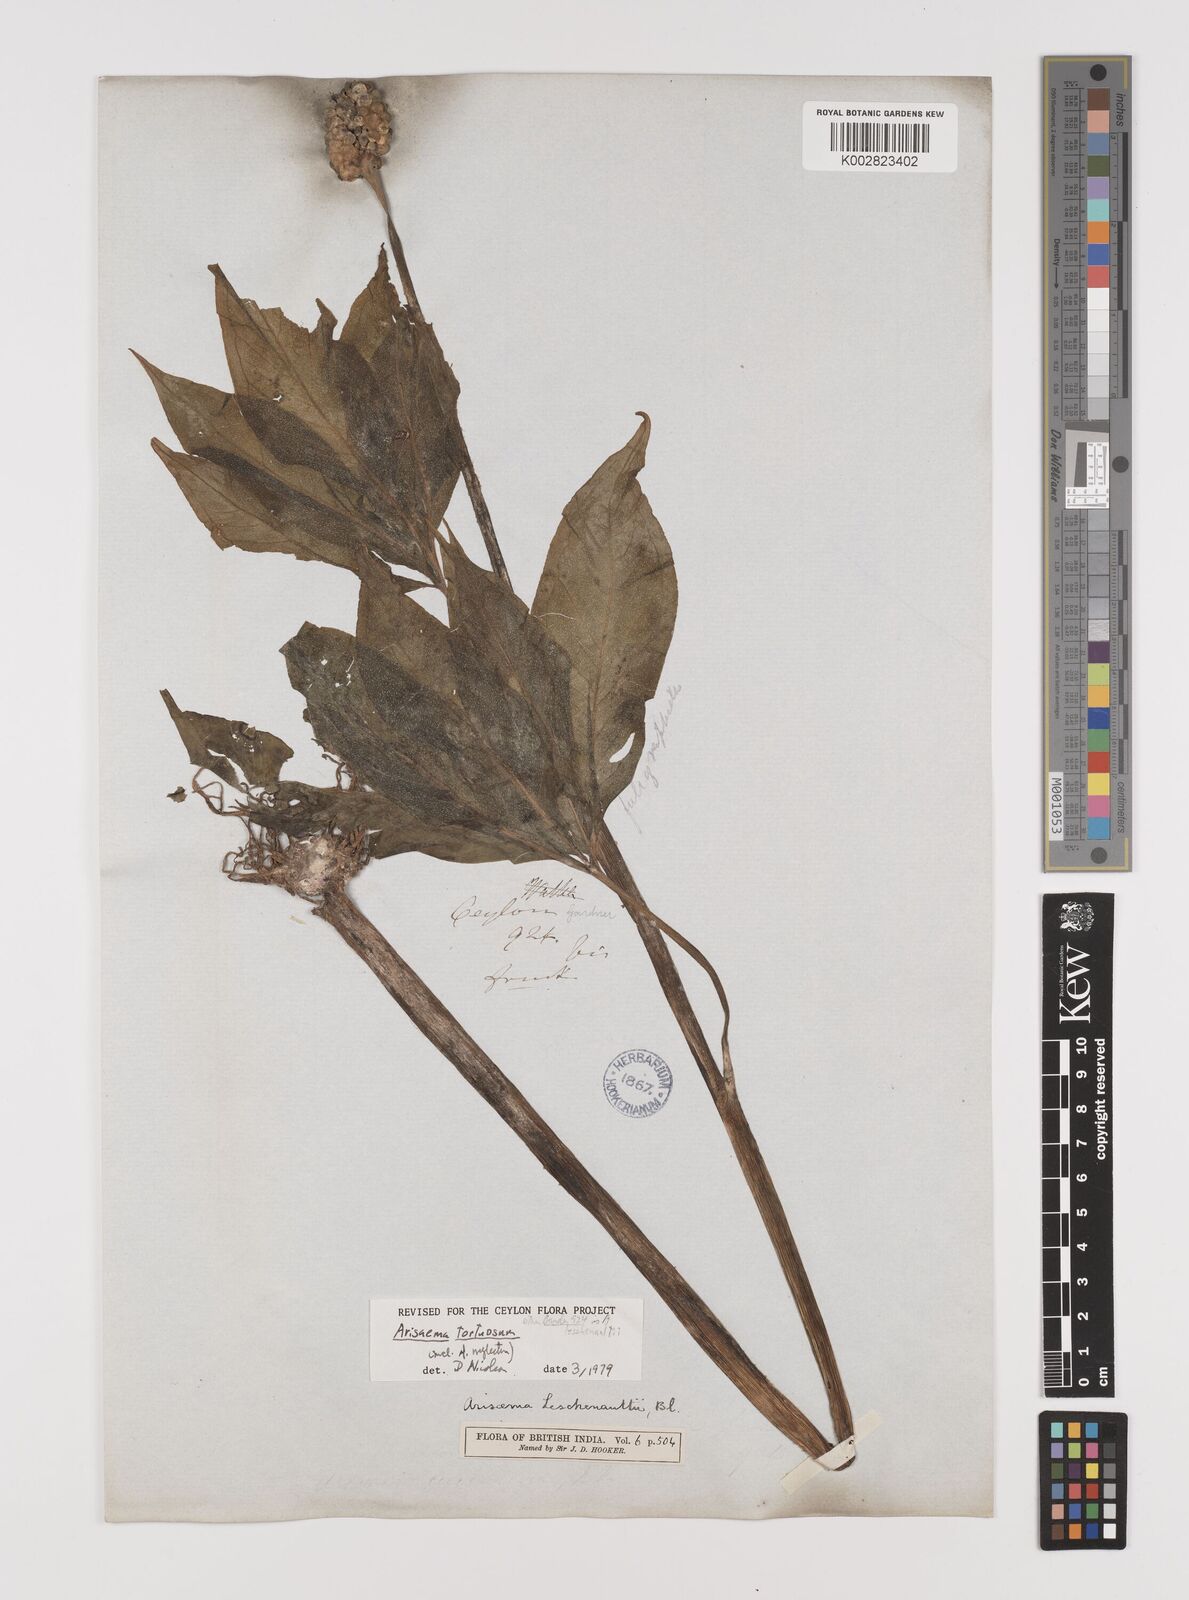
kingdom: Plantae
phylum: Tracheophyta
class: Liliopsida
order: Alismatales
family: Araceae
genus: Arisaema
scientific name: Arisaema tortuosum
